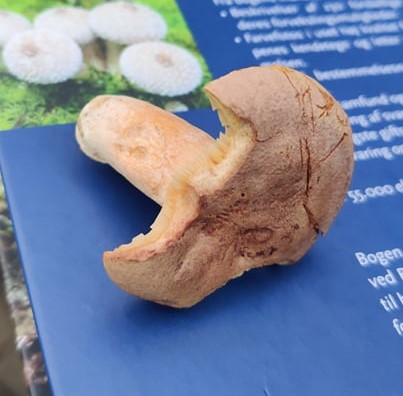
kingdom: Fungi
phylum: Basidiomycota
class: Agaricomycetes
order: Russulales
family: Russulaceae
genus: Lactarius
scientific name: Lactarius helvus
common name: mose-mælkehat
